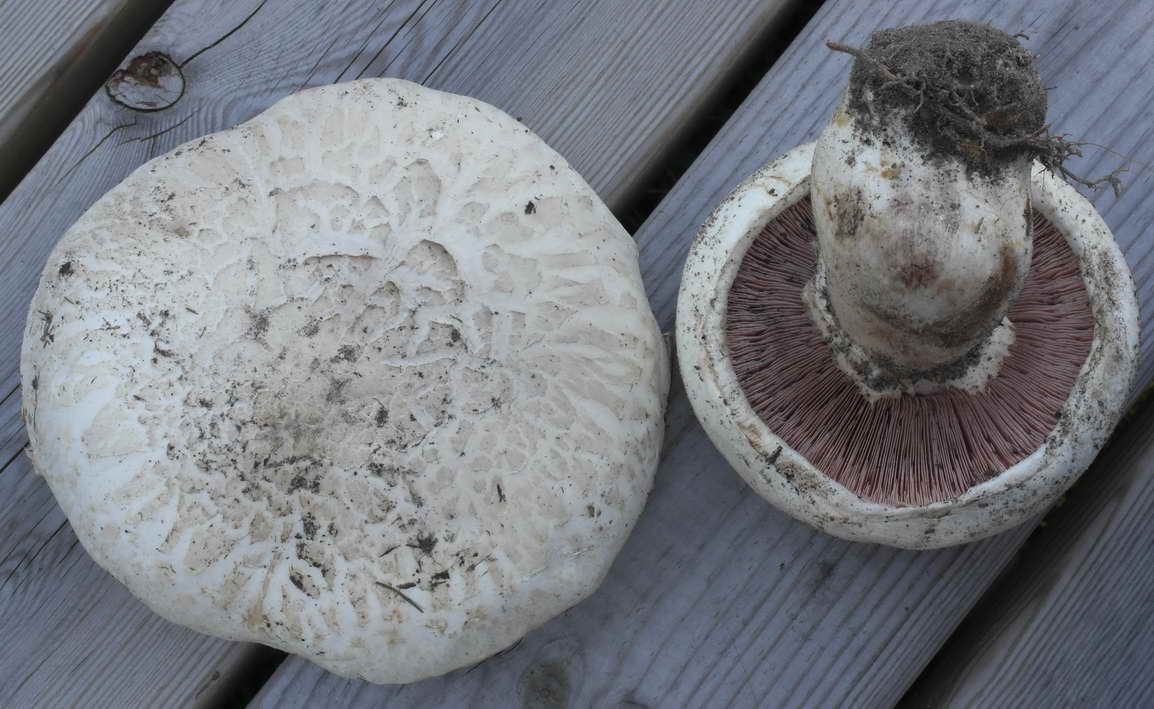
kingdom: Fungi
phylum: Basidiomycota
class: Agaricomycetes
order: Agaricales
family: Agaricaceae
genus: Agaricus
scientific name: Agaricus bernardii
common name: strandengs-champignon
